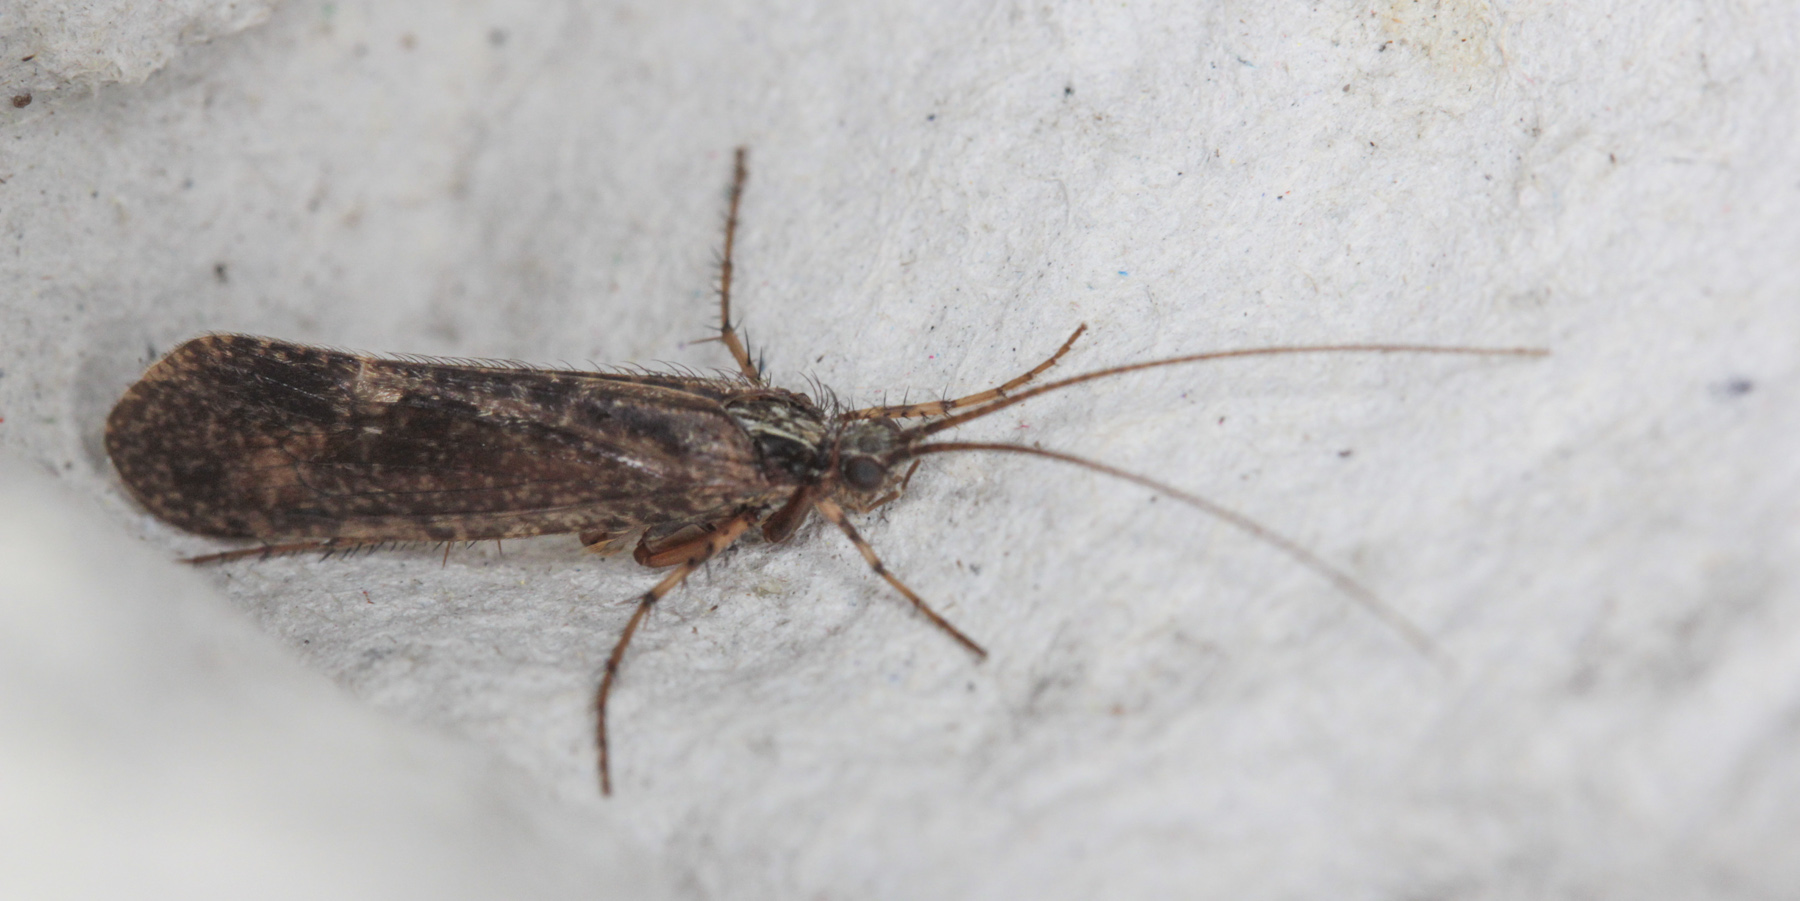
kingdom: Animalia
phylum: Arthropoda
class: Insecta
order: Trichoptera
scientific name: Trichoptera
